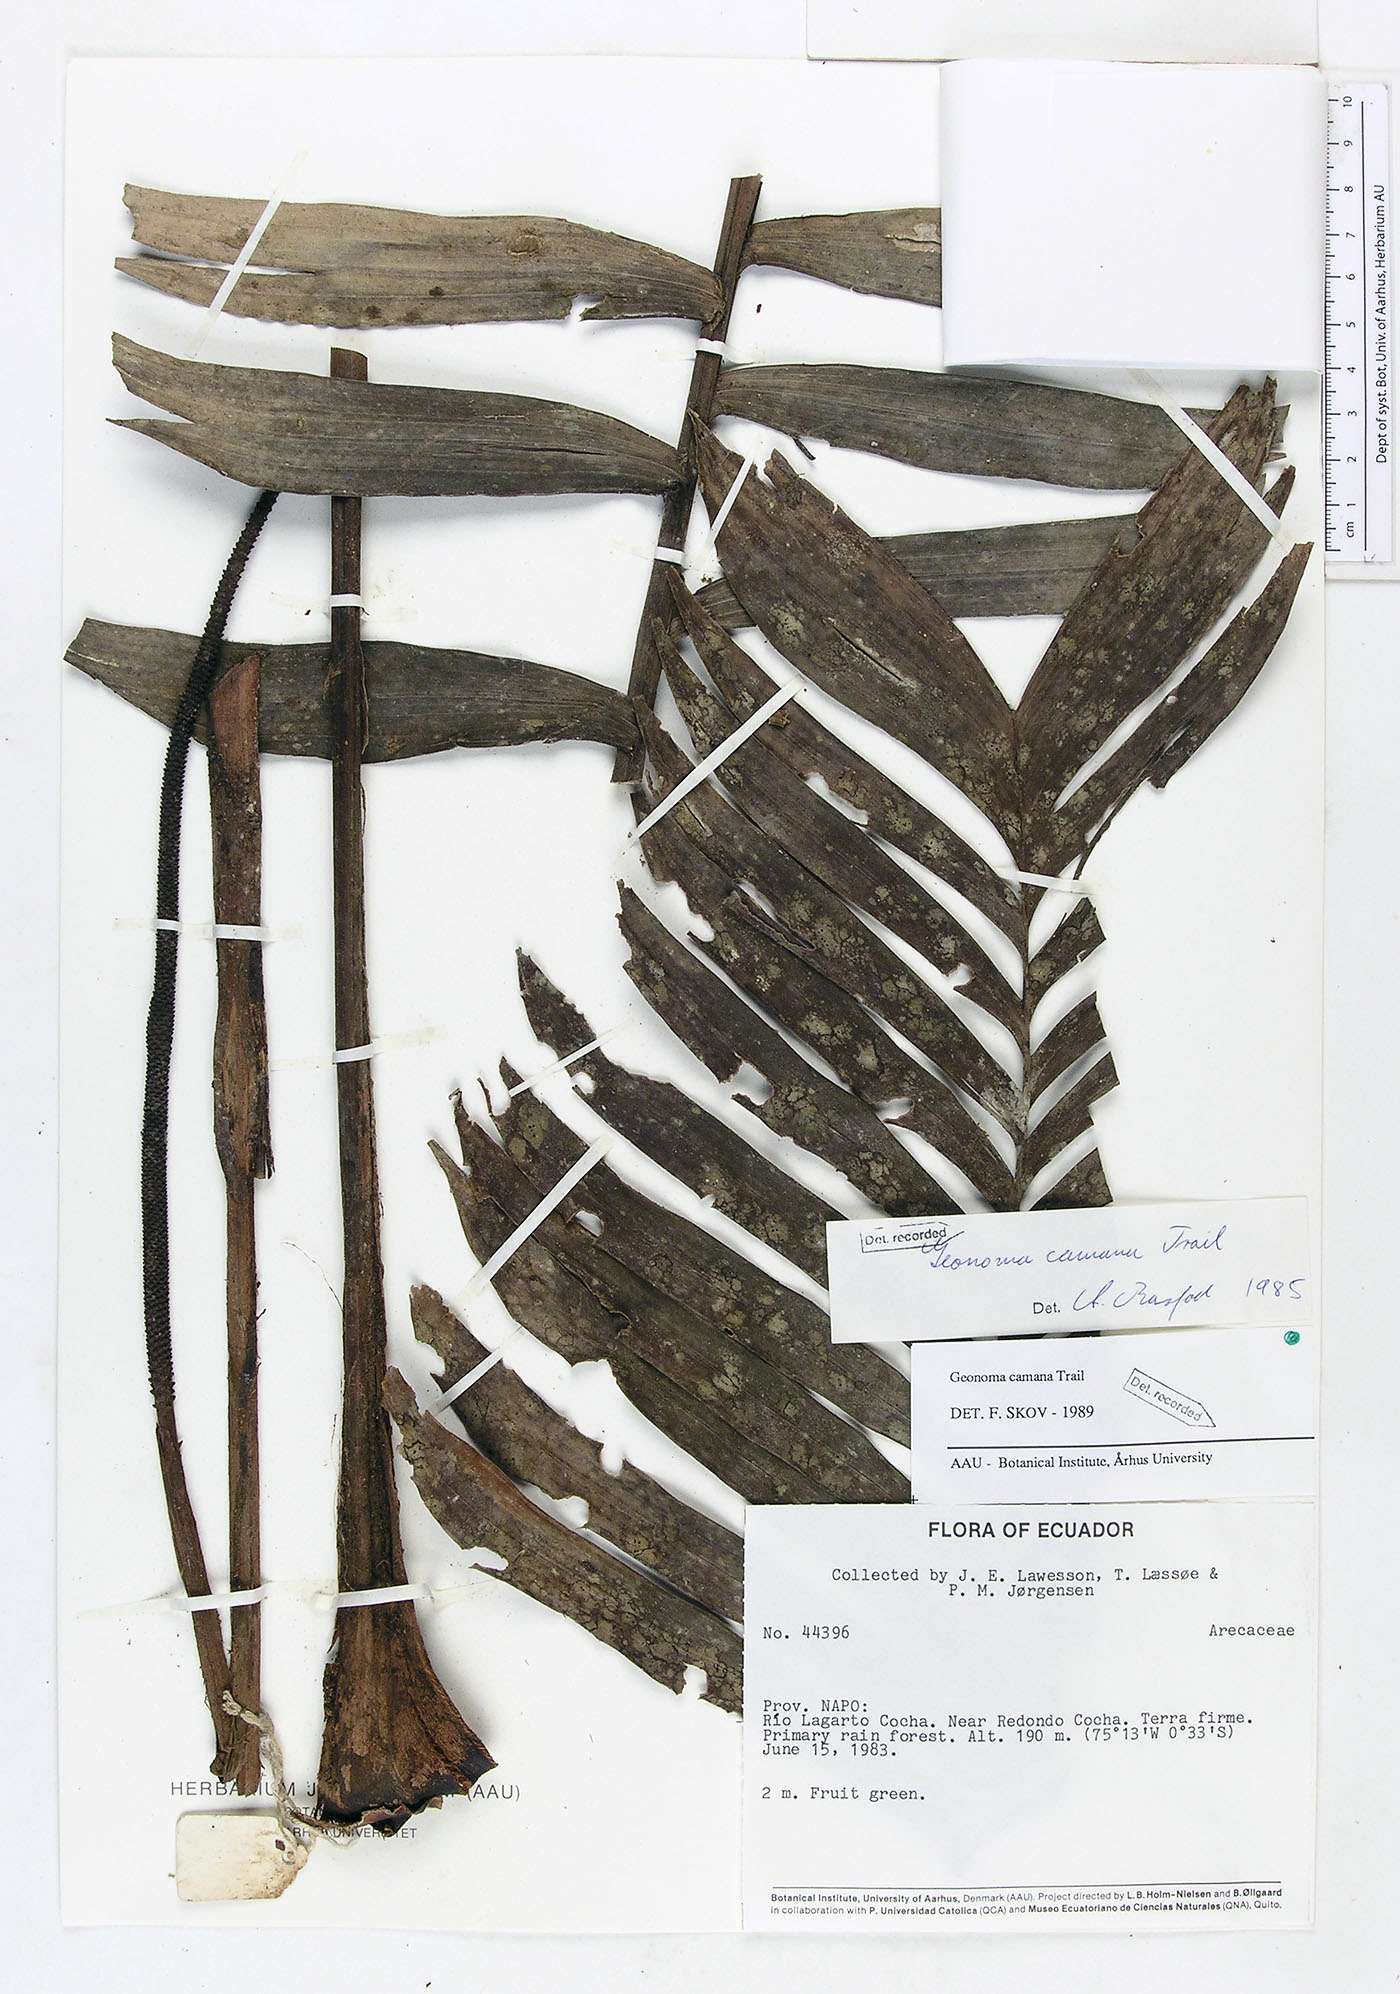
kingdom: Plantae
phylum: Tracheophyta
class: Liliopsida
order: Arecales
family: Arecaceae
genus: Geonoma
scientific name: Geonoma camana
